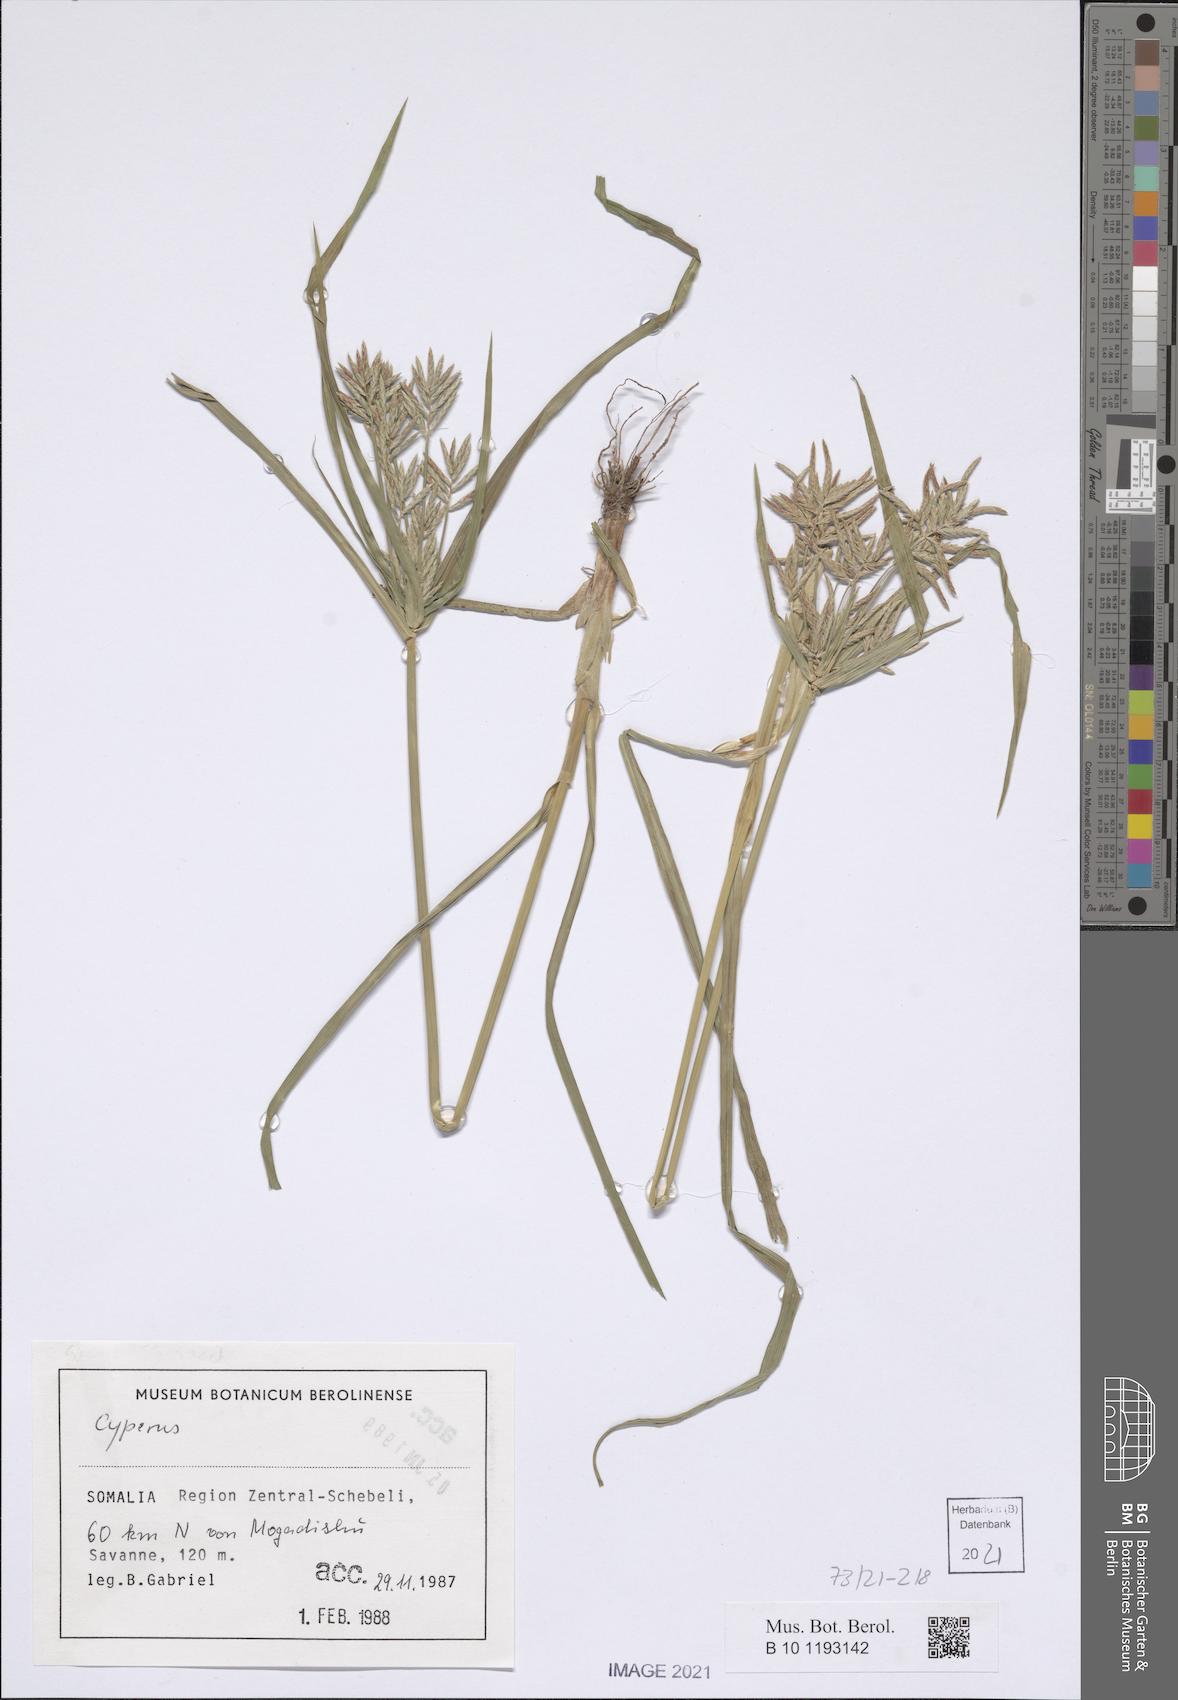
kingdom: Plantae
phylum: Tracheophyta
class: Liliopsida
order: Poales
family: Cyperaceae
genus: Cyperus
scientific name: Cyperus
